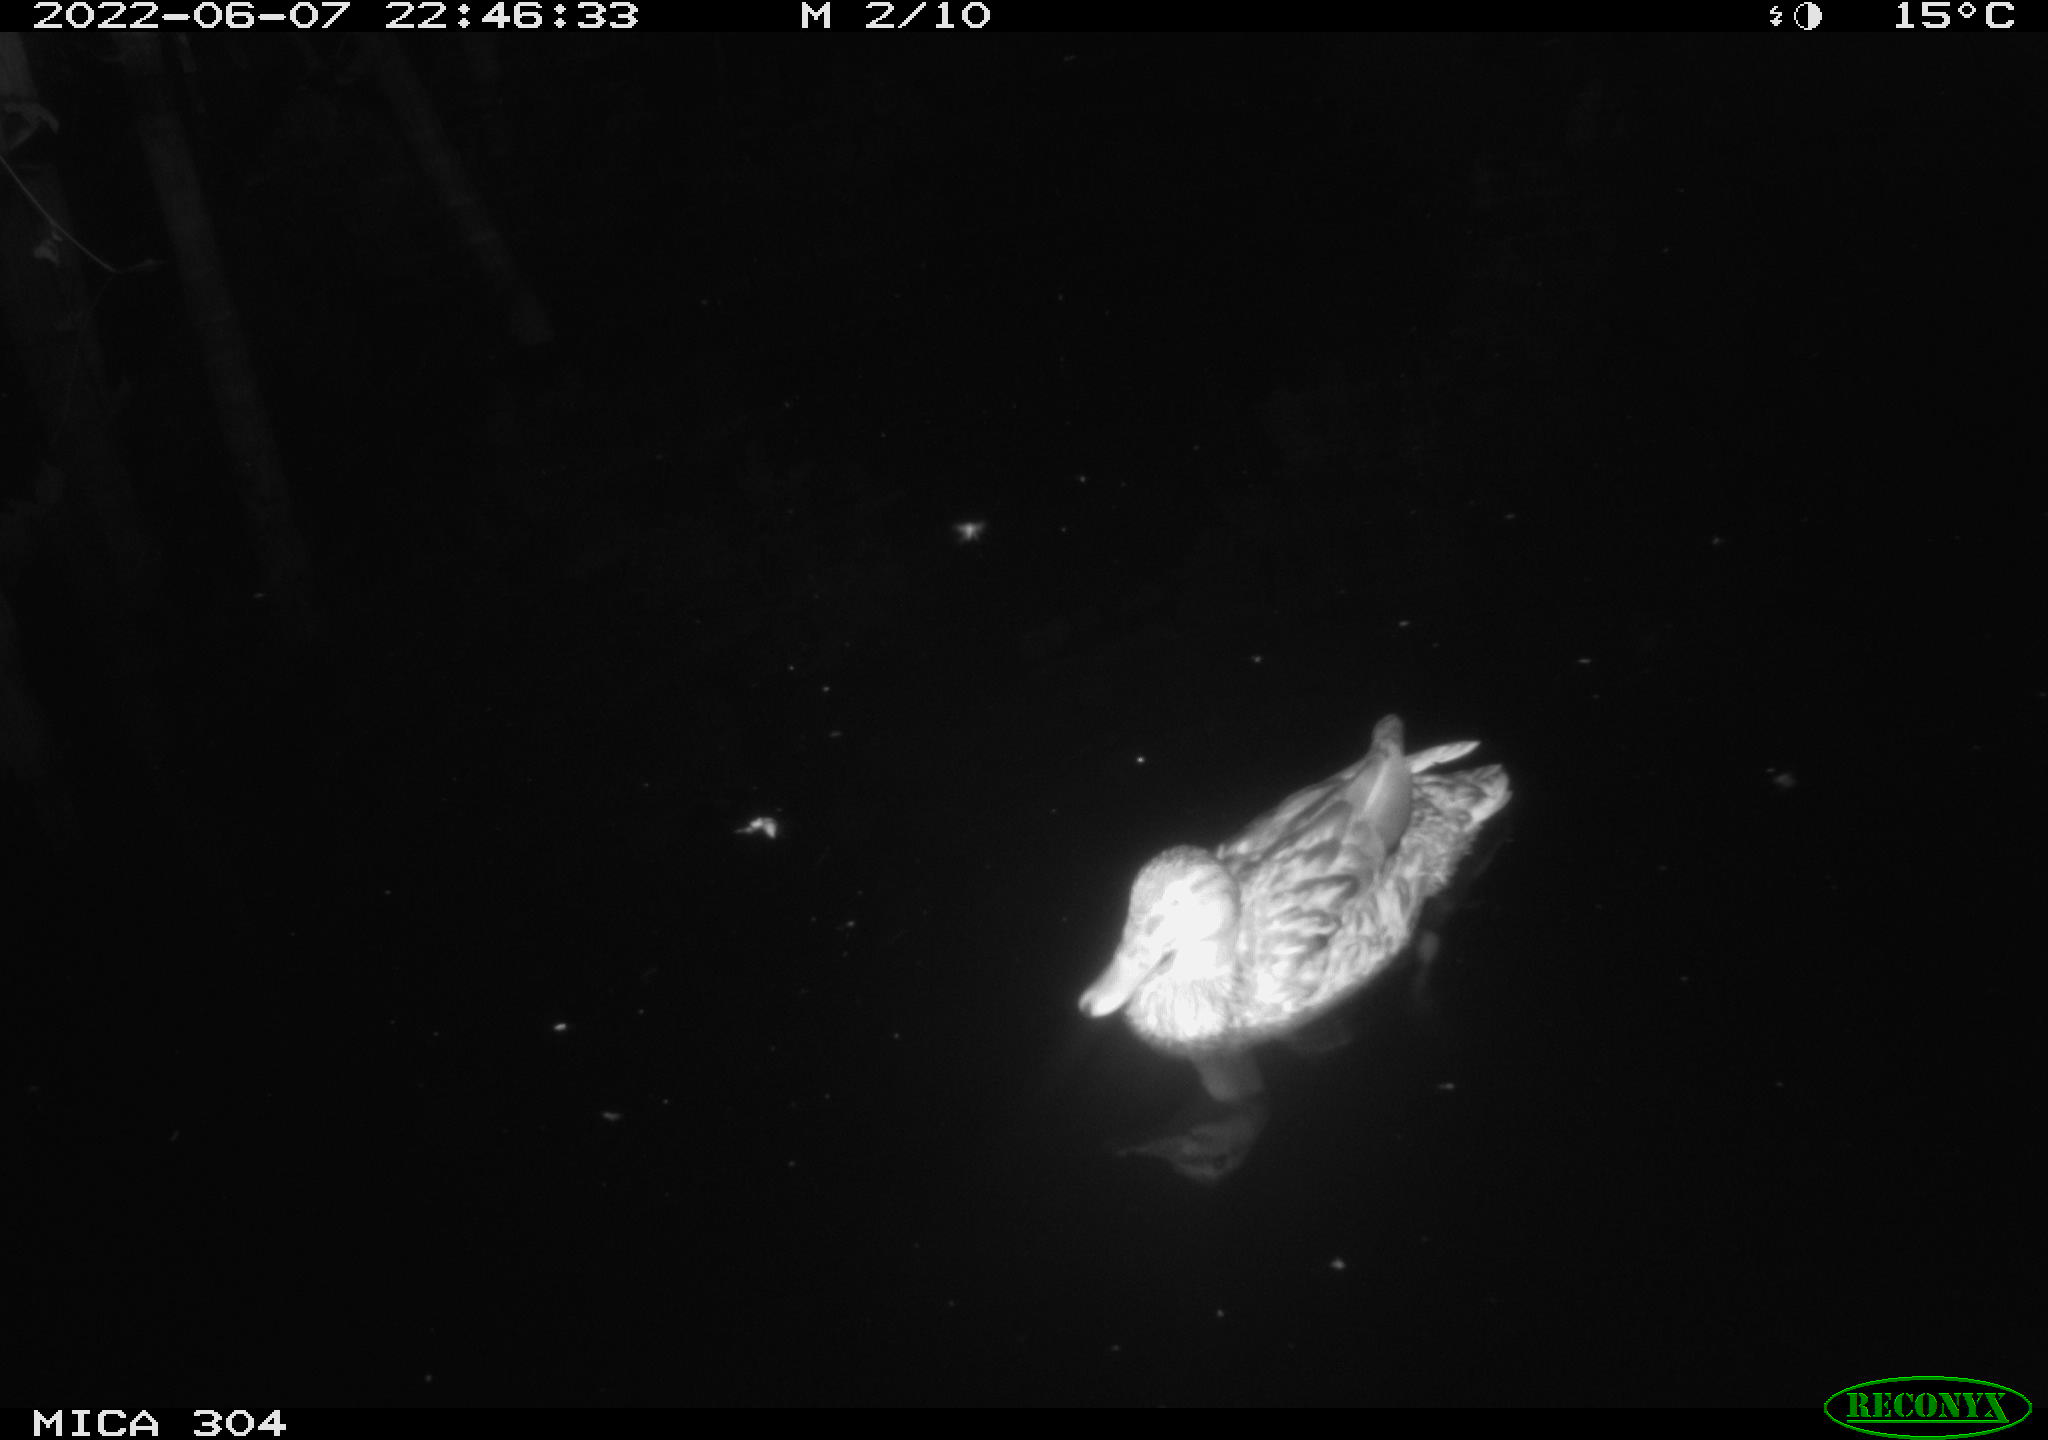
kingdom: Animalia
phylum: Chordata
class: Aves
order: Anseriformes
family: Anatidae
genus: Mareca
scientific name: Mareca strepera
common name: Gadwall
